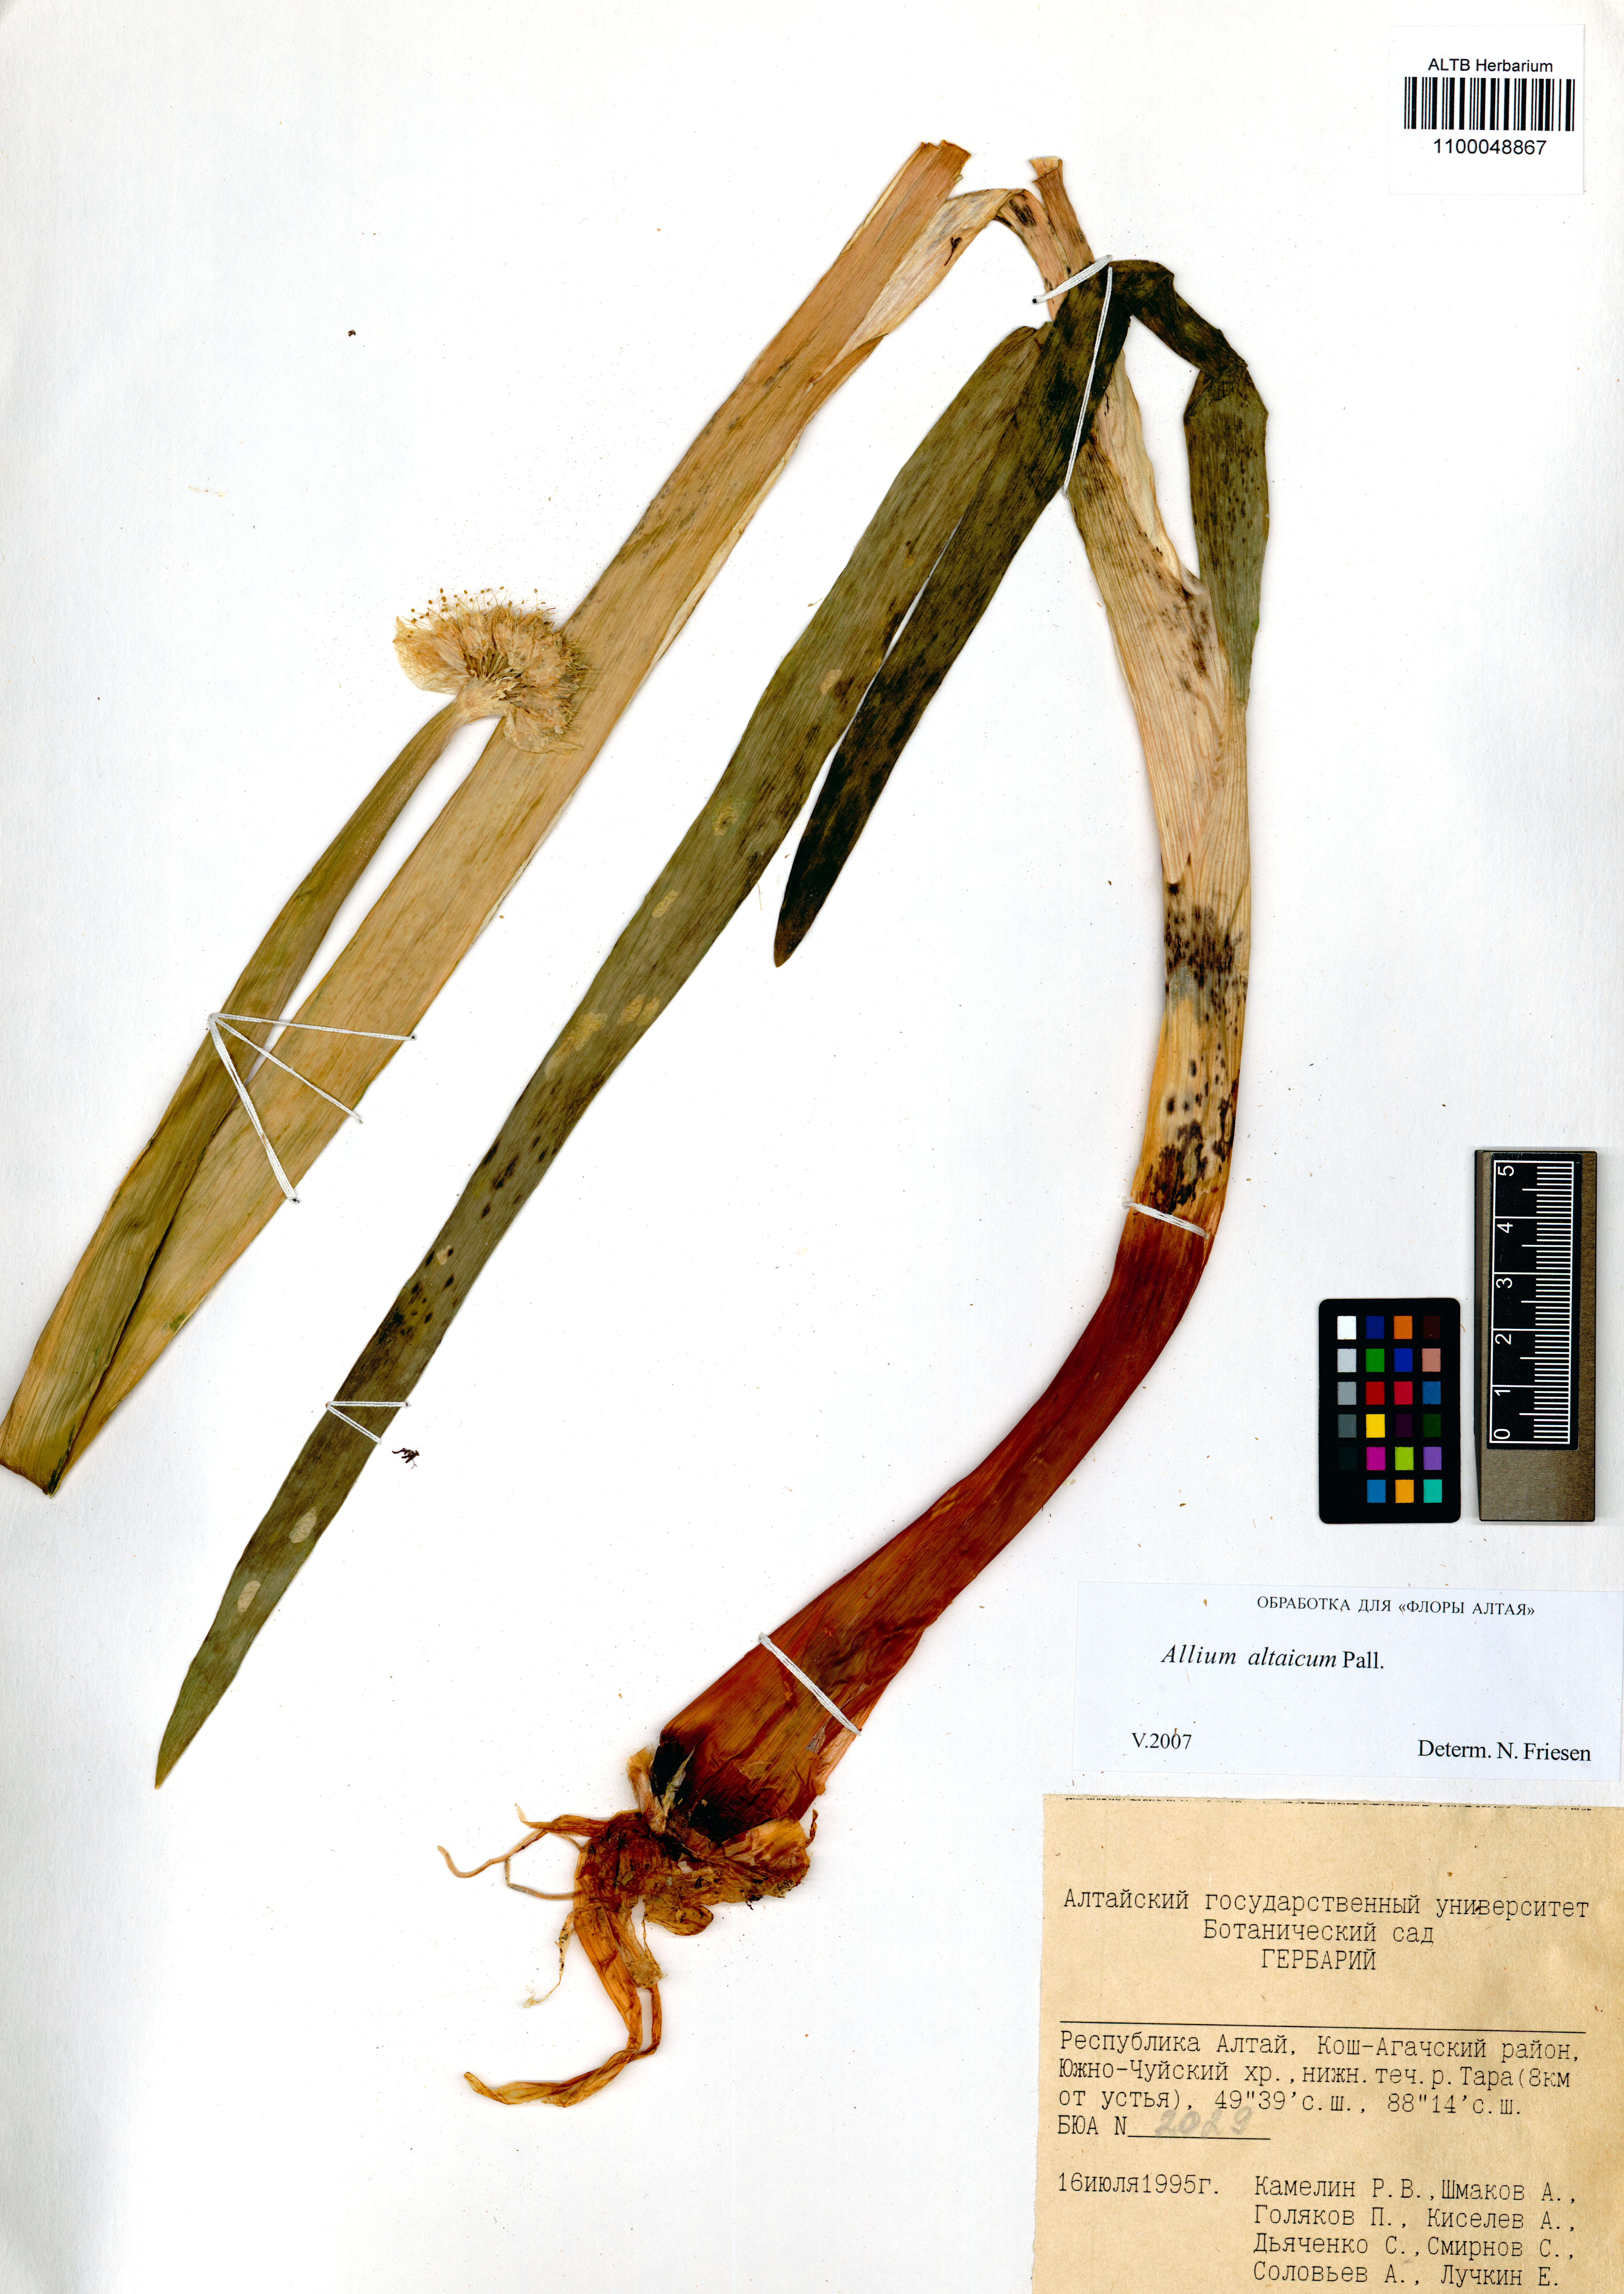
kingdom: Plantae
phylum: Tracheophyta
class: Liliopsida
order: Asparagales
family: Amaryllidaceae
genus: Allium
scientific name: Allium altaicum
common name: Altai onion
